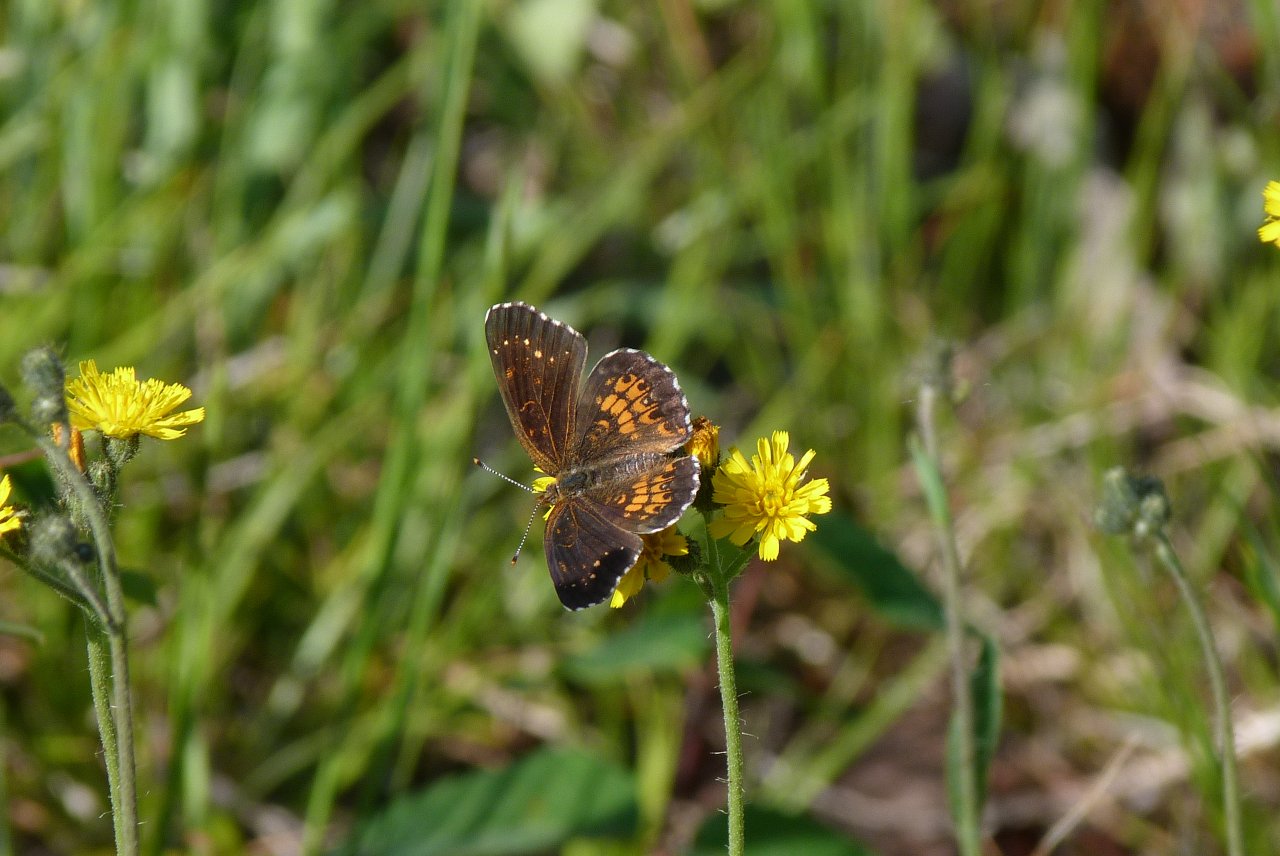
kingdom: Animalia
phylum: Arthropoda
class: Insecta
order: Lepidoptera
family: Nymphalidae
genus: Chlosyne
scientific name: Chlosyne harrisii
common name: Harris's Checkerspot
